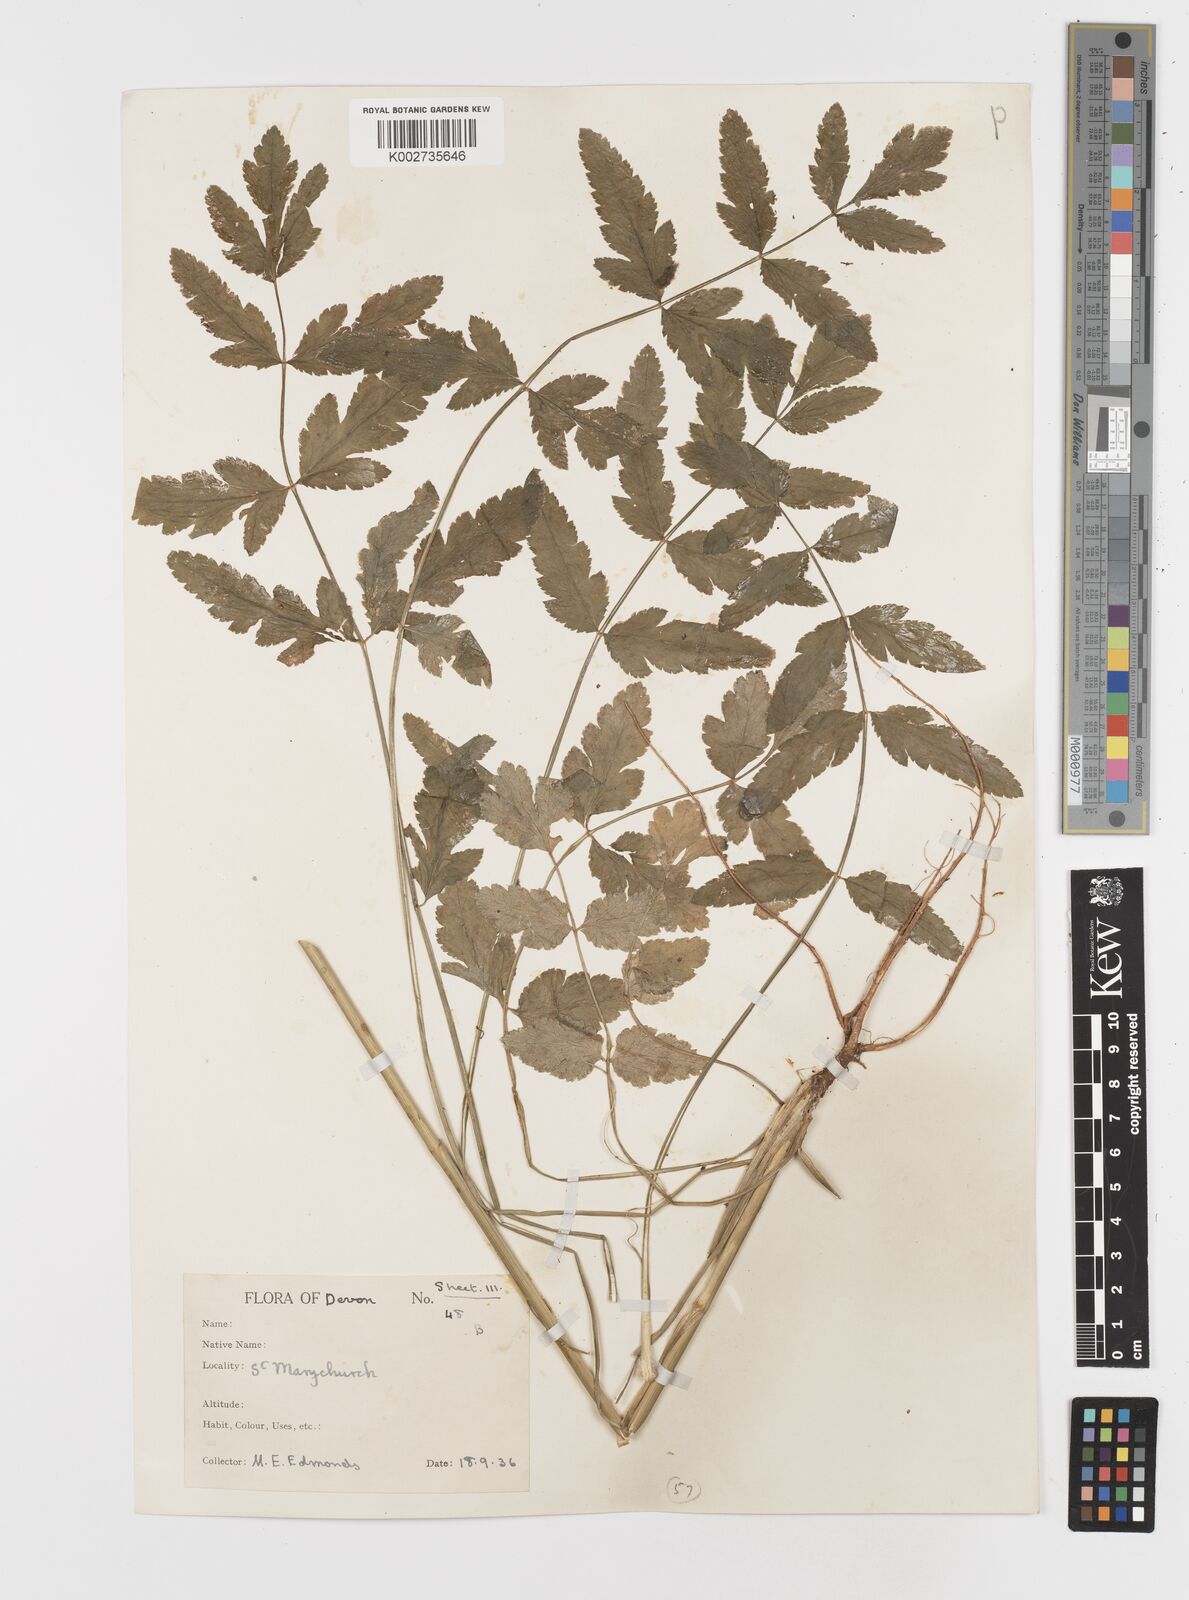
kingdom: Plantae
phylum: Tracheophyta
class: Magnoliopsida
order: Apiales
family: Apiaceae
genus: Sison
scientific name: Sison amomum
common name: Stone-parsley
